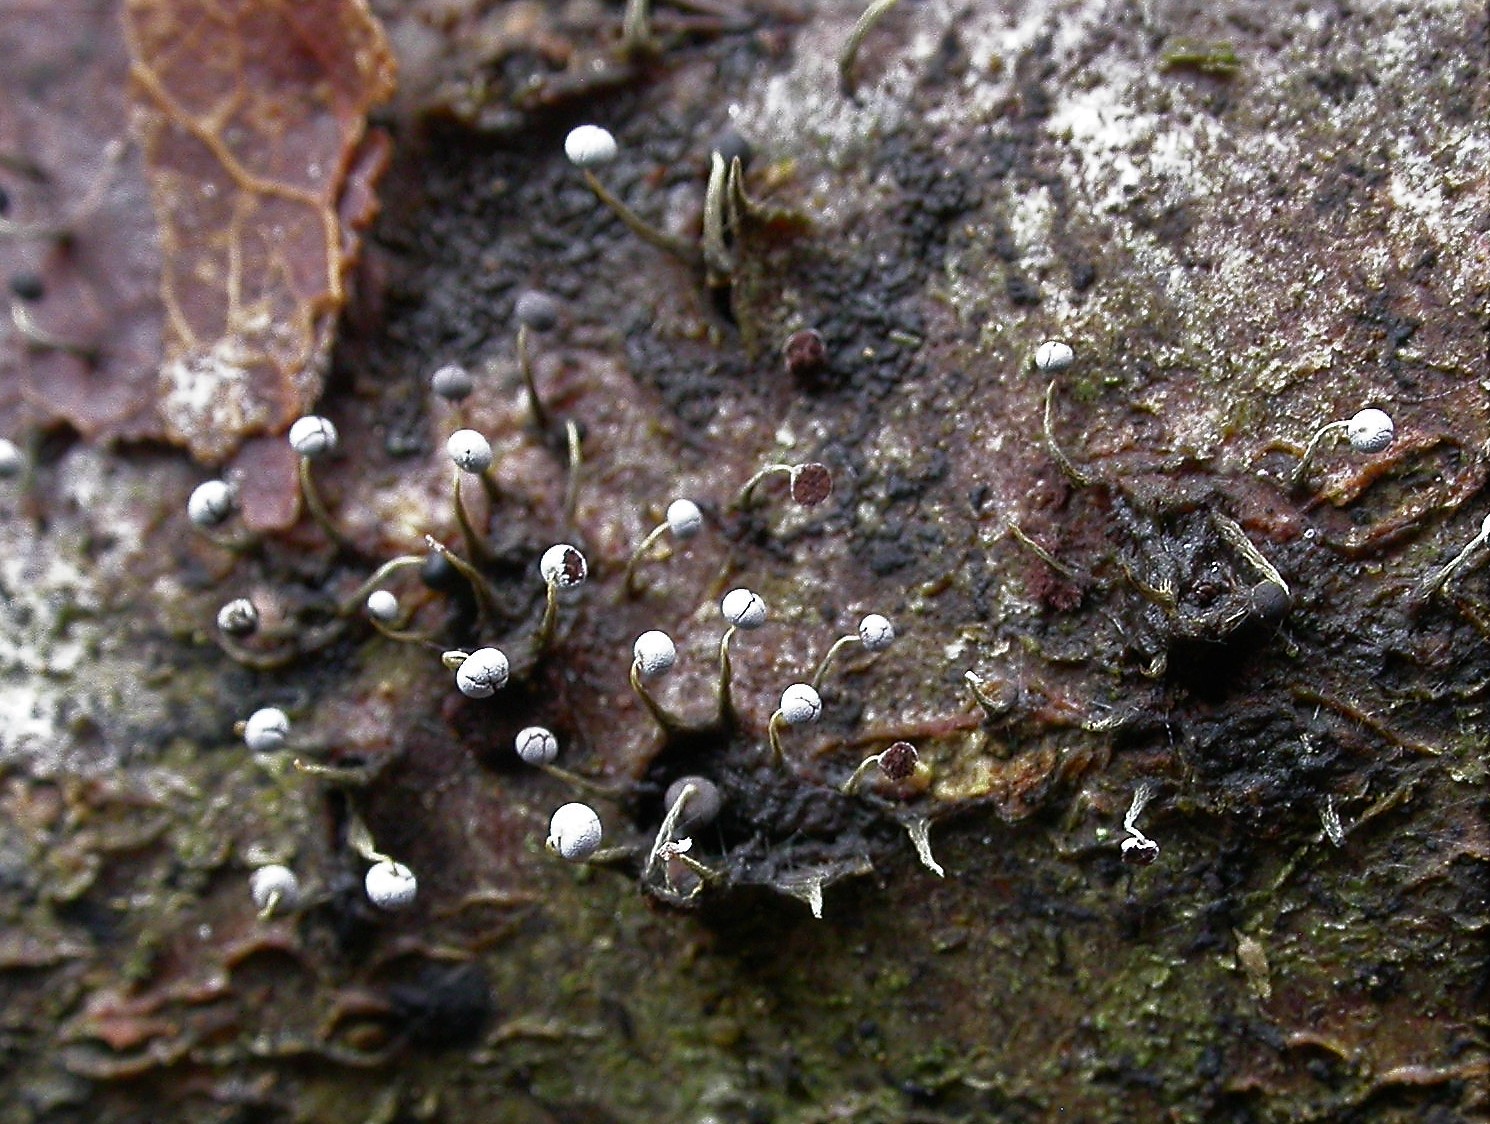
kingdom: Protozoa
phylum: Mycetozoa
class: Myxomycetes
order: Physarales
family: Physaraceae
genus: Physarum
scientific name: Physarum album
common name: nikkende støvknop
